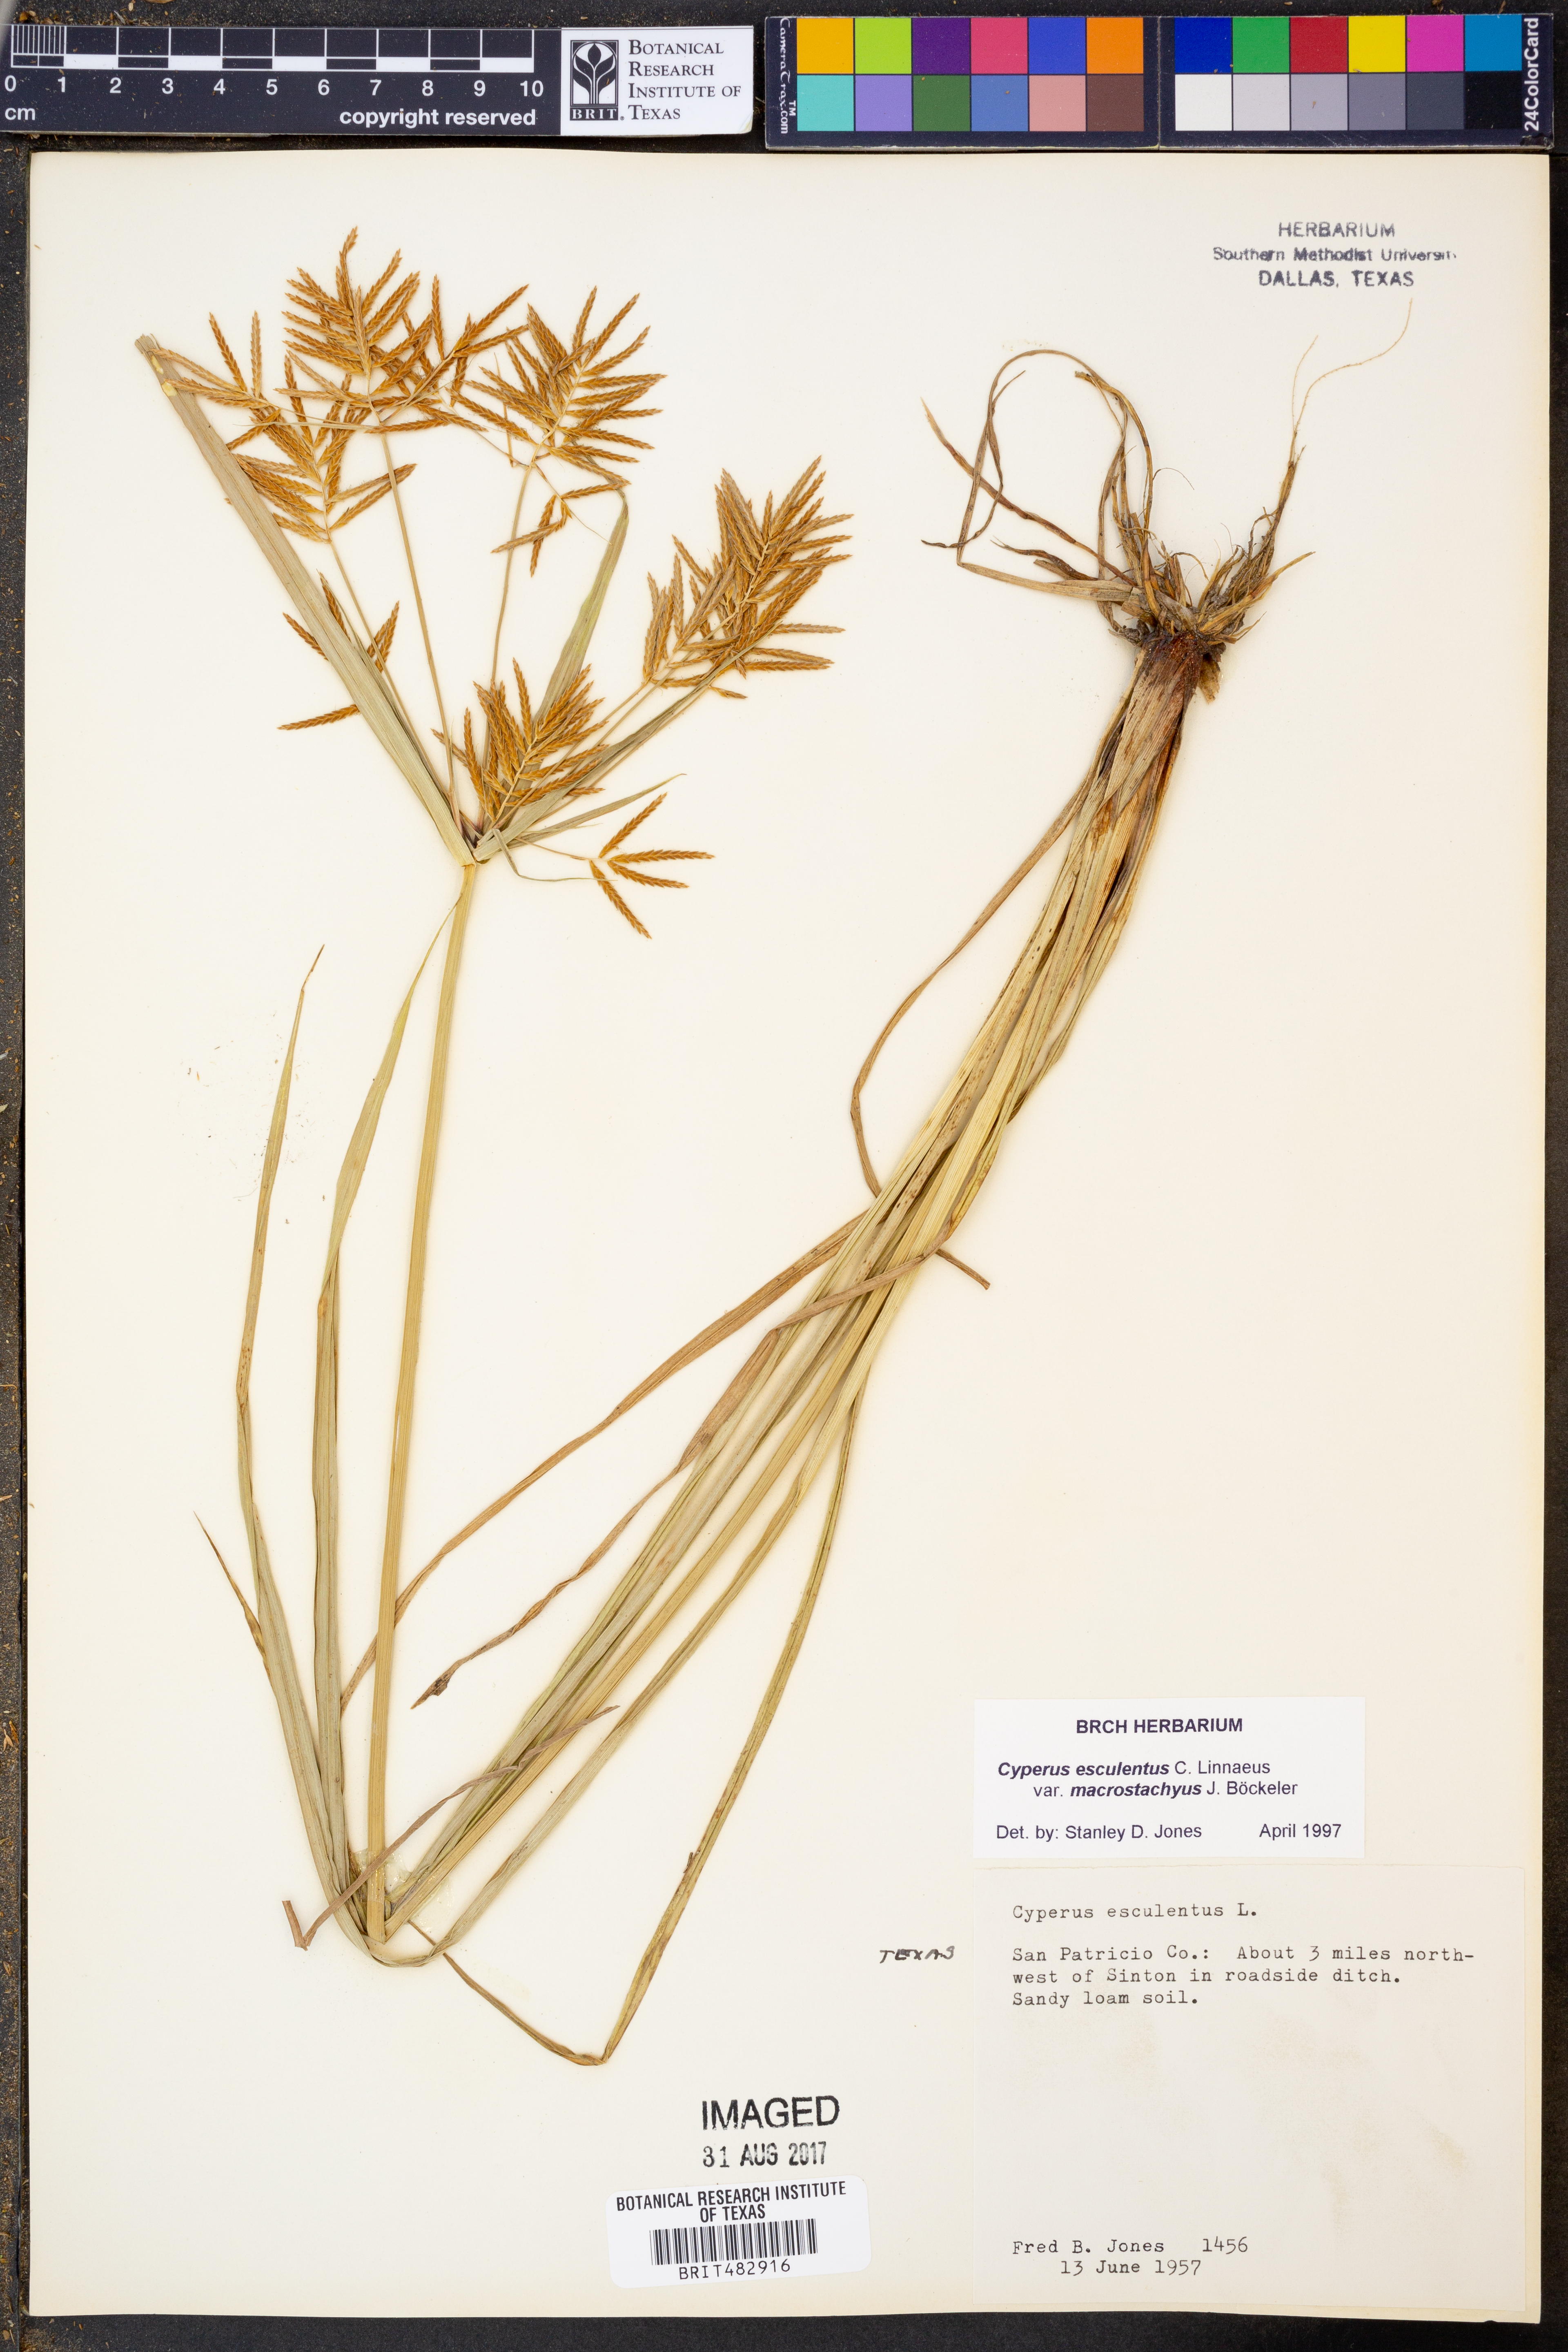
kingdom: Plantae
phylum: Tracheophyta
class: Liliopsida
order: Poales
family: Cyperaceae
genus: Cyperus
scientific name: Cyperus esculentus
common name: Yellow nutsedge
